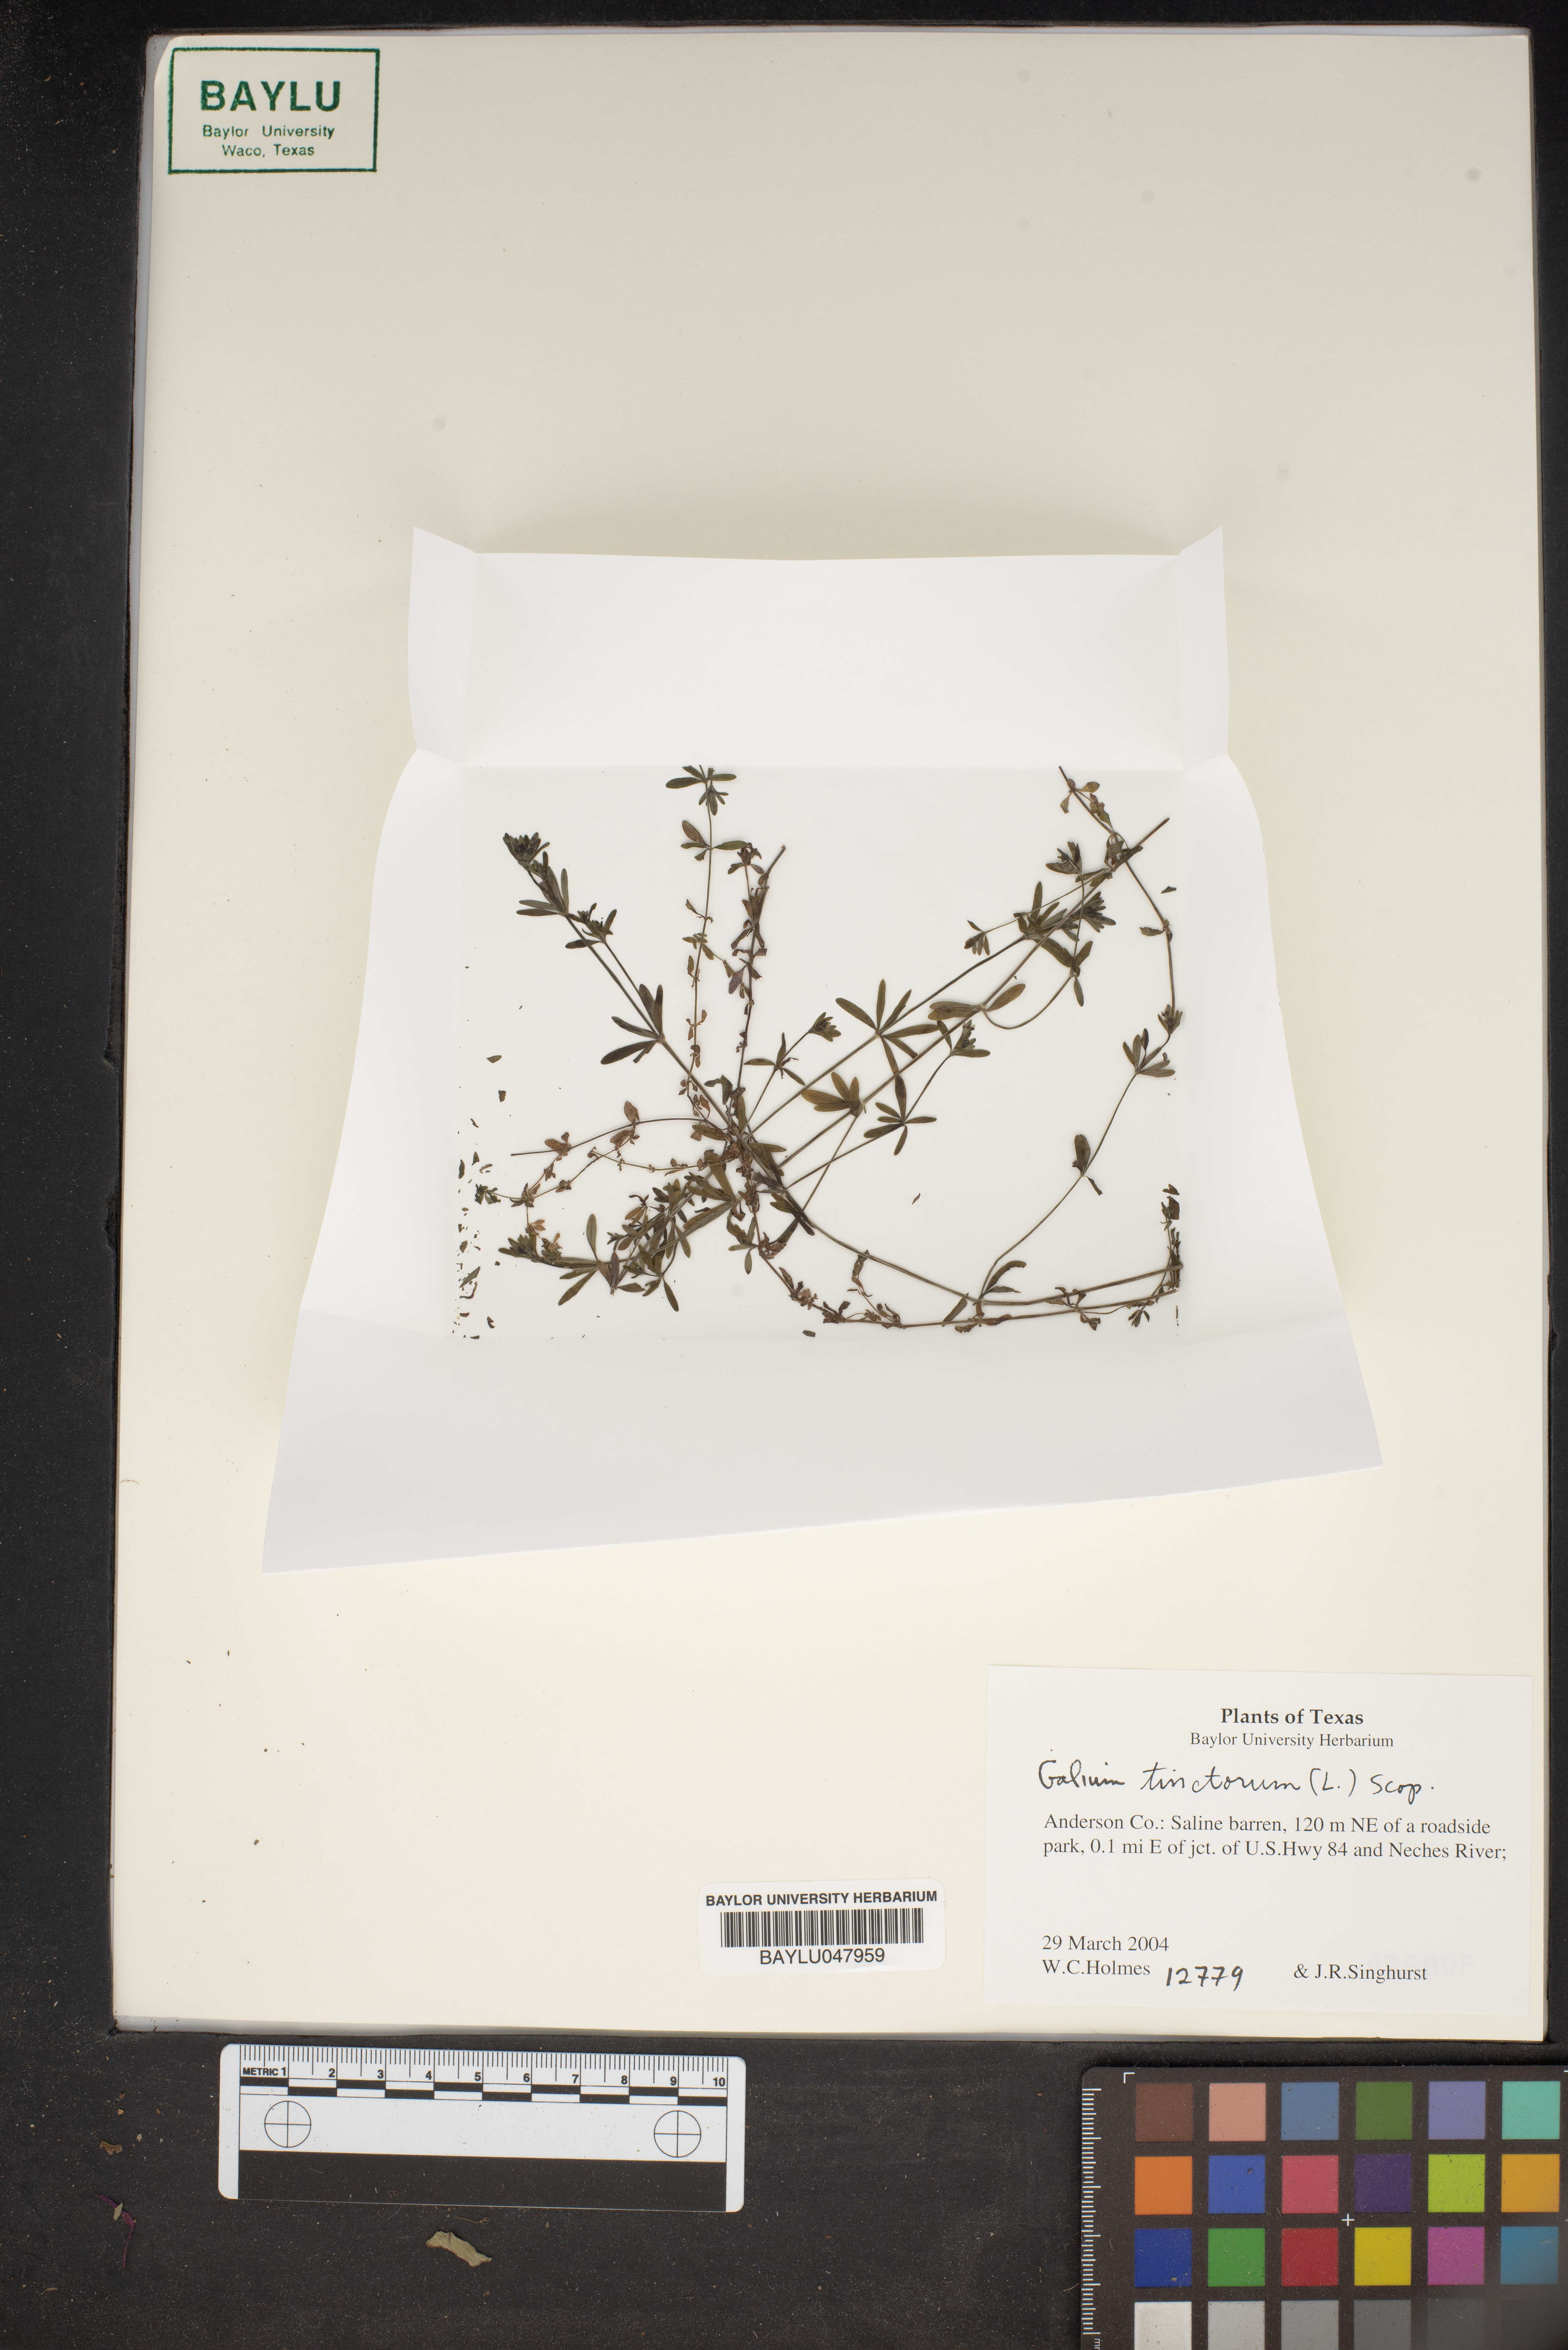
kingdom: Plantae
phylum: Tracheophyta
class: Magnoliopsida
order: Gentianales
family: Rubiaceae
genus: Asperula
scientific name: Asperula tinctoria
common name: Dyer's woodruff
